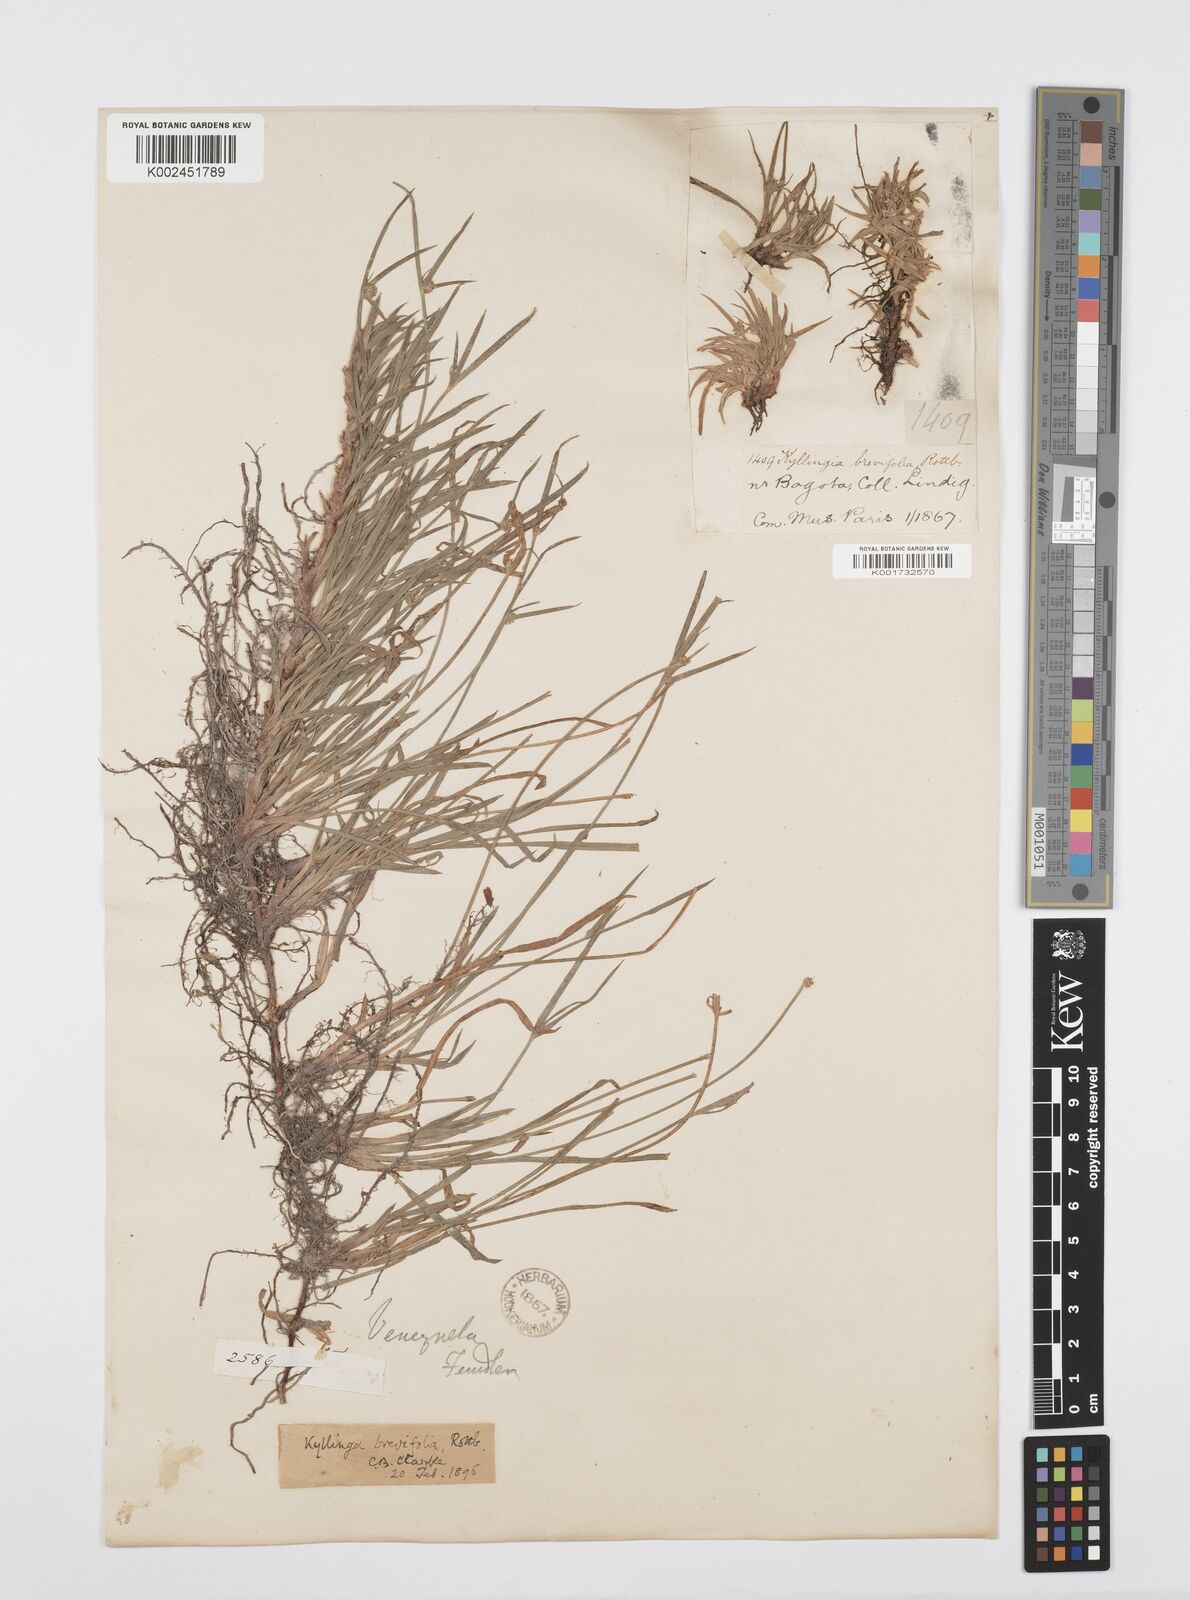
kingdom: Plantae
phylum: Tracheophyta
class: Liliopsida
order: Poales
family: Cyperaceae
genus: Cyperus
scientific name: Cyperus brevifolius
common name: Globe kyllinga
